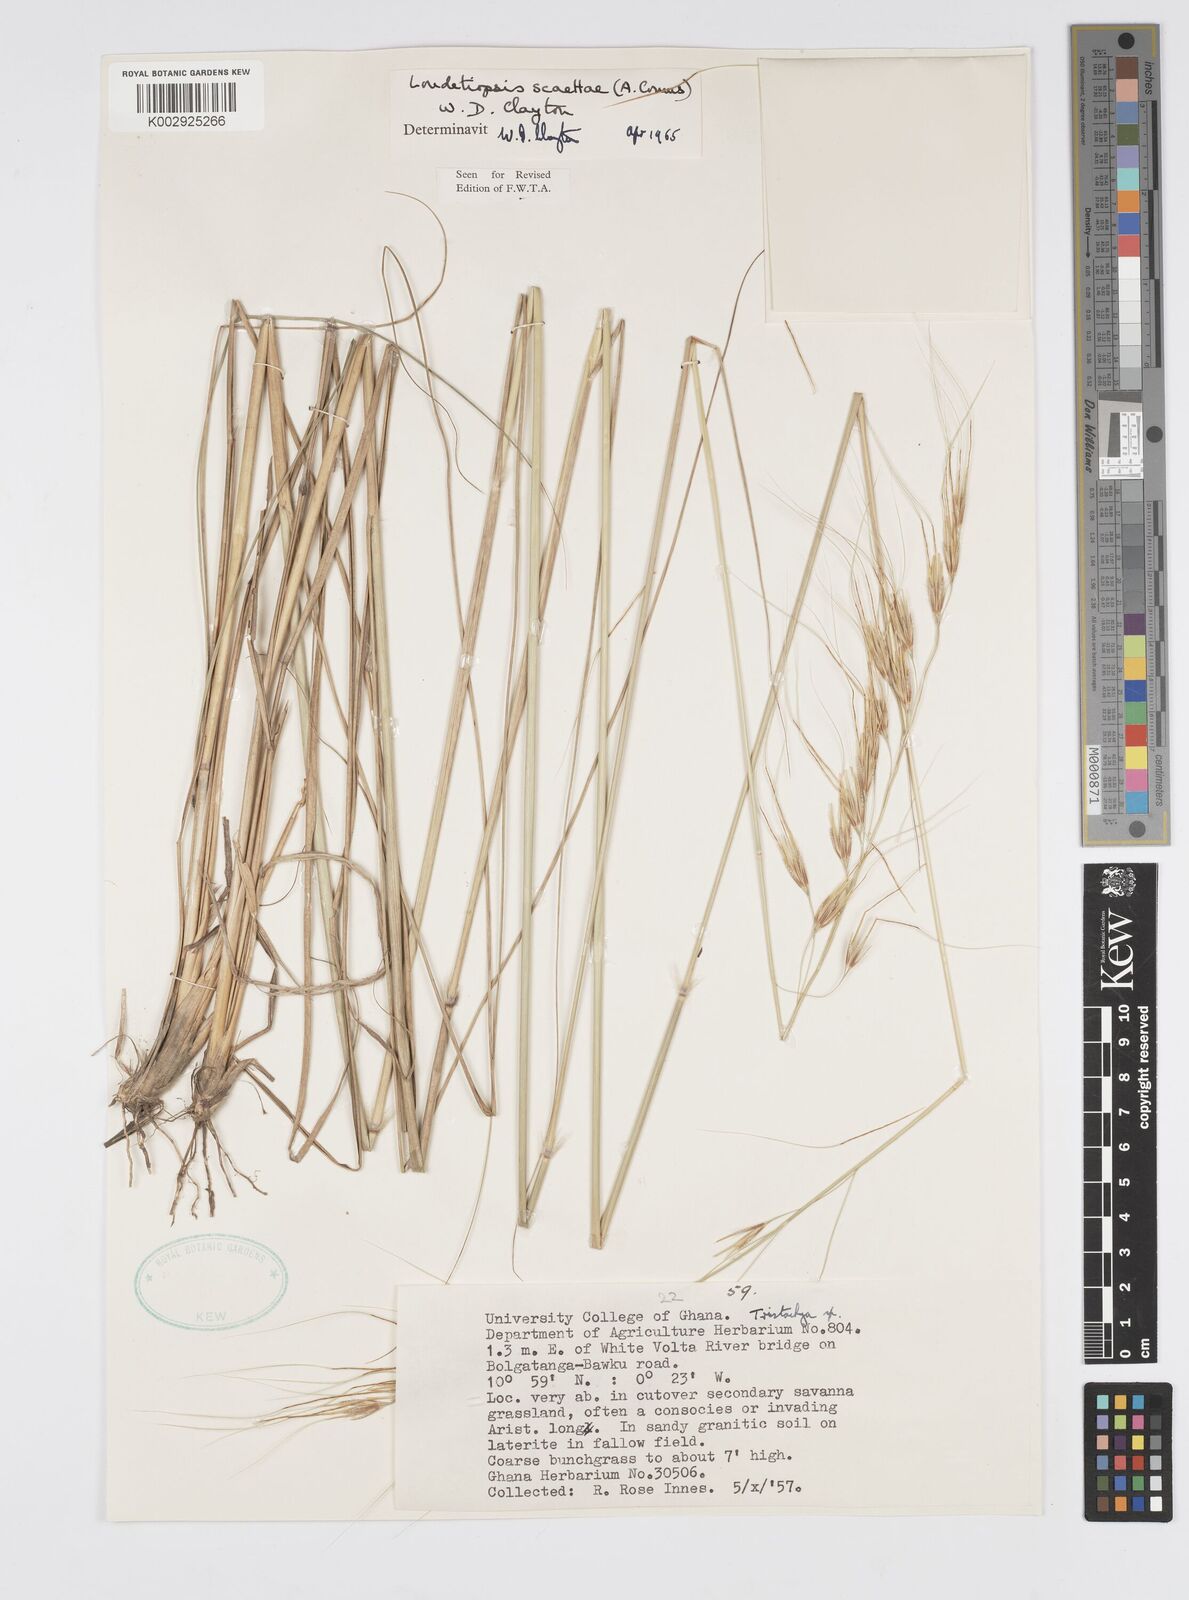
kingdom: Plantae
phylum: Tracheophyta
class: Liliopsida
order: Poales
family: Poaceae
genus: Loudetiopsis
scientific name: Loudetiopsis scaettae
